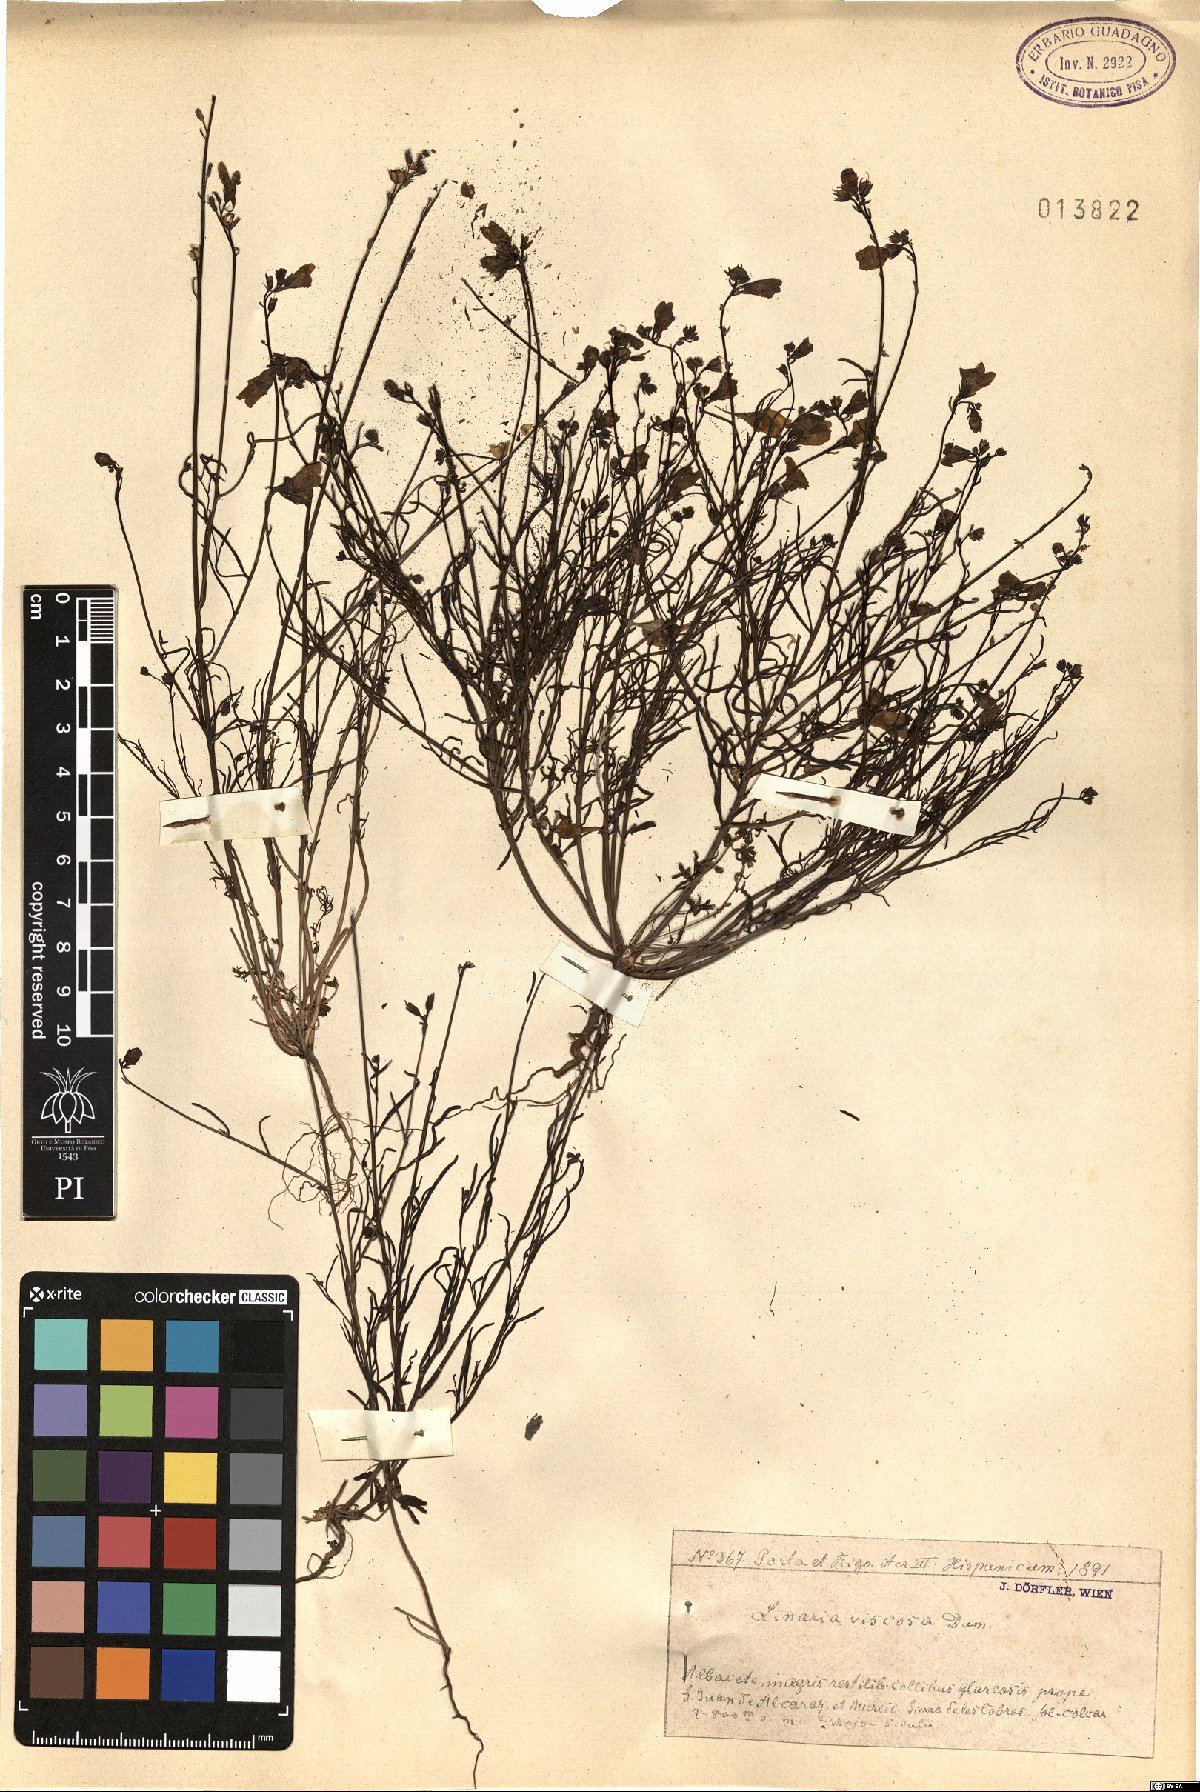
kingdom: Plantae
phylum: Tracheophyta
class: Magnoliopsida
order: Lamiales
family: Plantaginaceae
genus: Linaria
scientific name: Linaria viscosa
